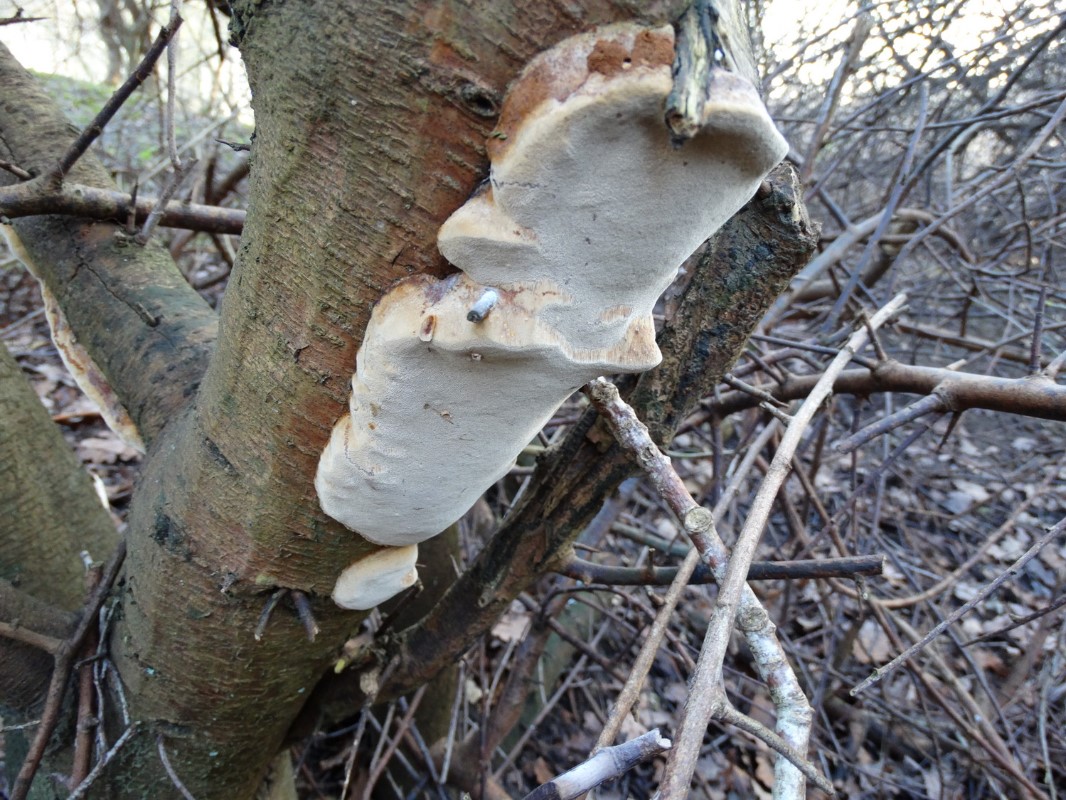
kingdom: Fungi
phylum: Basidiomycota
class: Agaricomycetes
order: Hymenochaetales
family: Hymenochaetaceae
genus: Phellinus
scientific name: Phellinus pomaceus
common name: blomme-ildporesvamp
